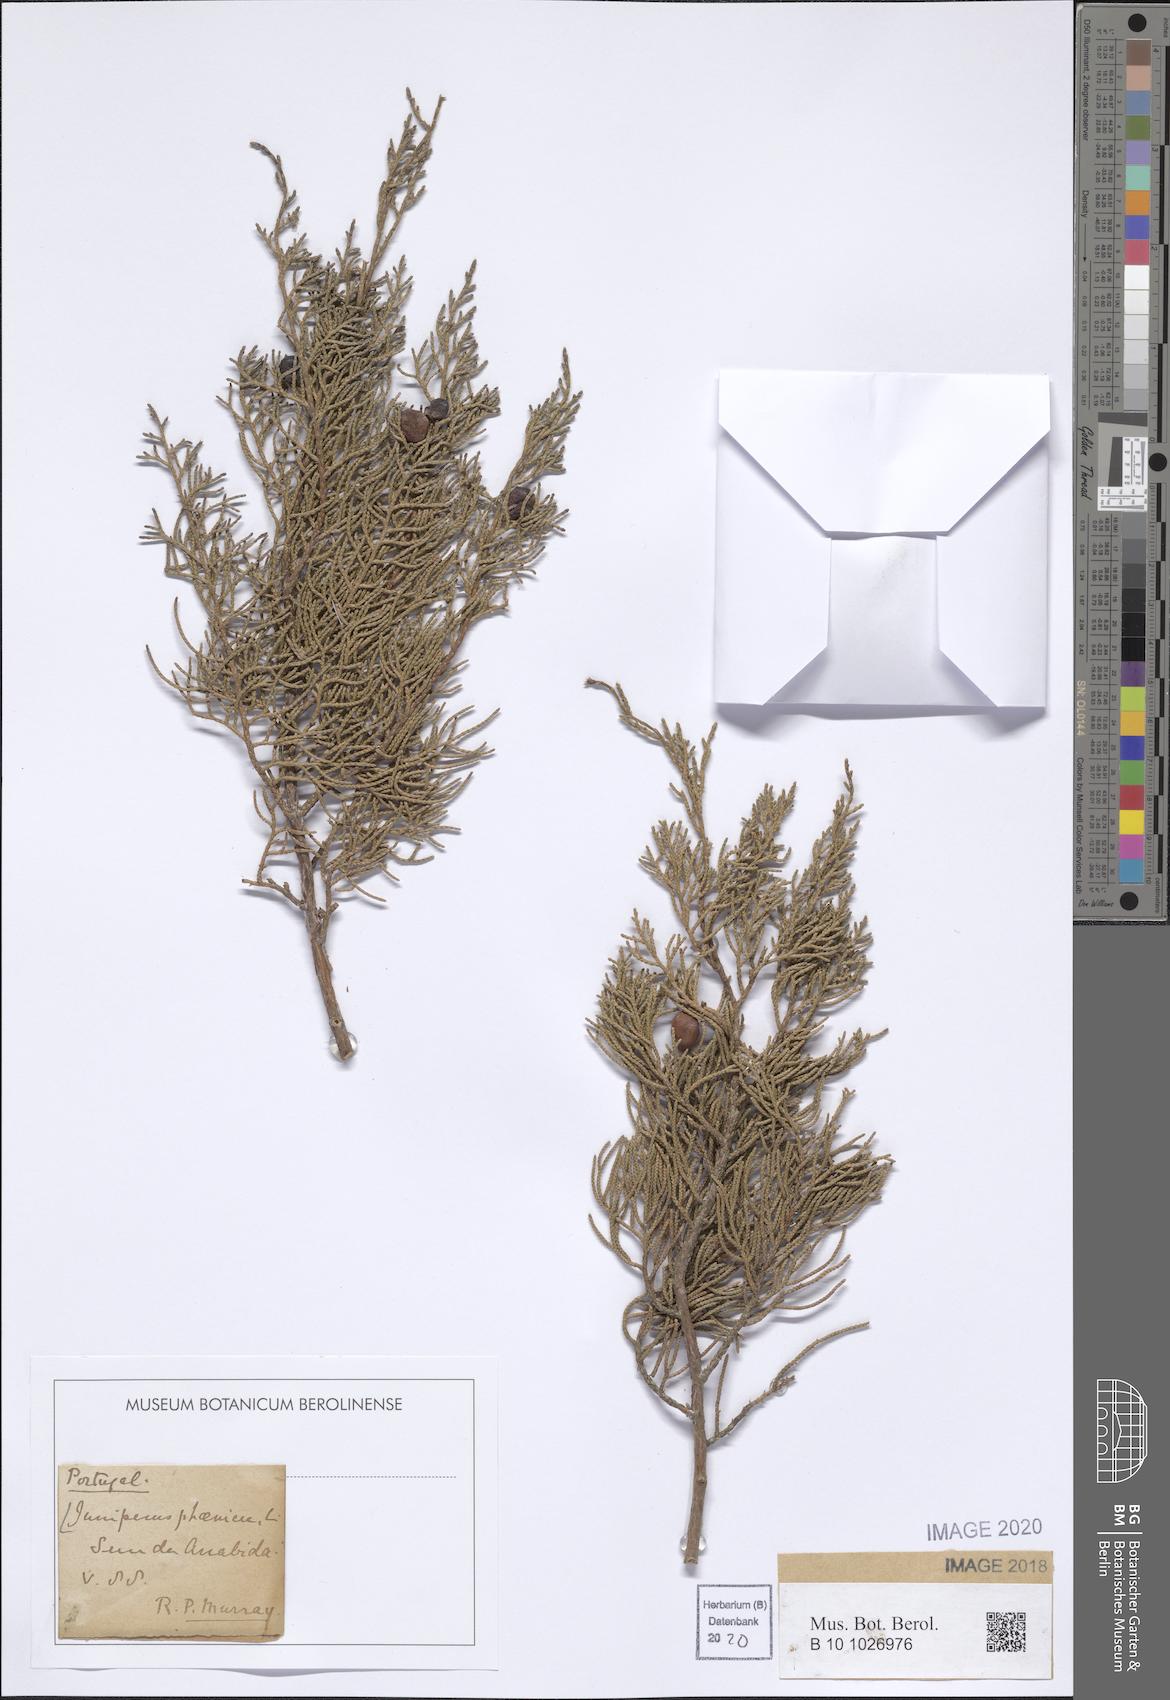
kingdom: Plantae
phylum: Tracheophyta
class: Pinopsida
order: Pinales
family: Cupressaceae
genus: Juniperus
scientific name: Juniperus phoenicea
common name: Phoenician juniper
